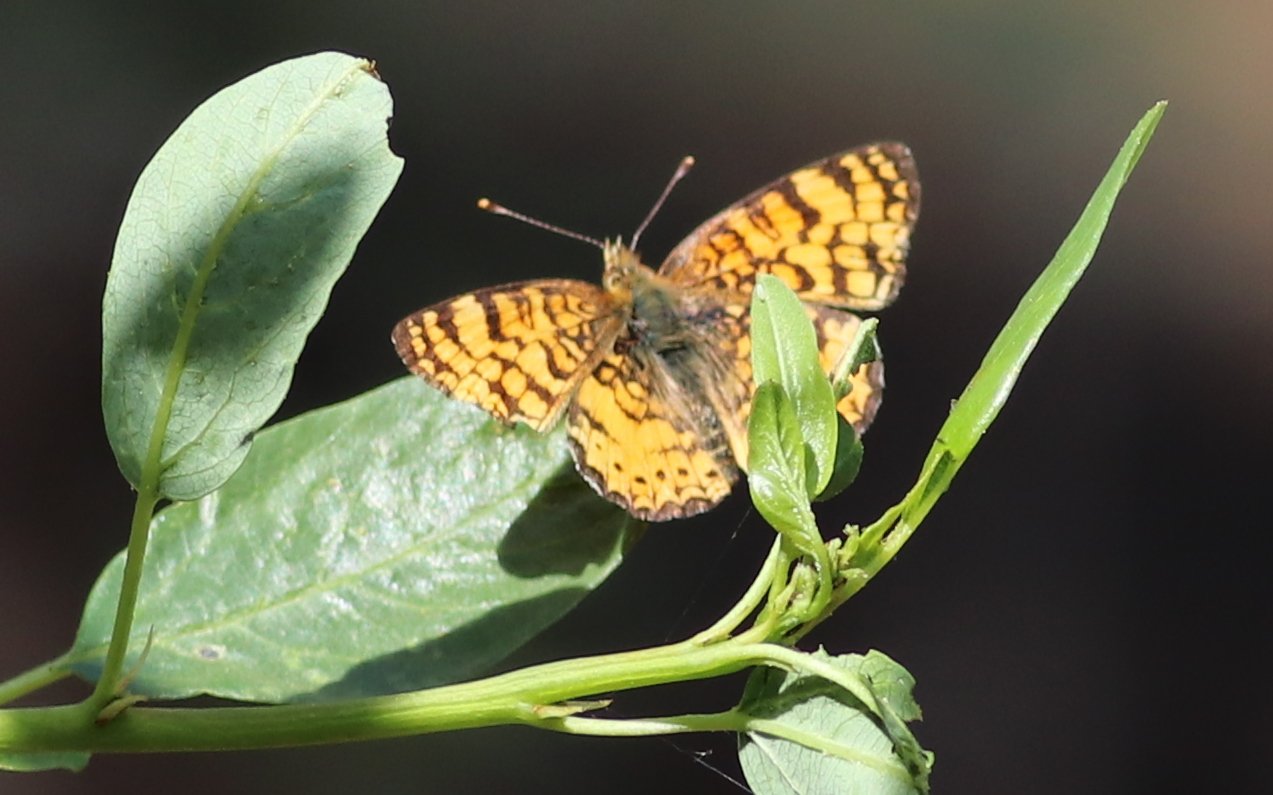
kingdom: Animalia
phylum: Arthropoda
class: Insecta
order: Lepidoptera
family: Nymphalidae
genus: Eresia
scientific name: Eresia aveyrona
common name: Mylitta Crescent
